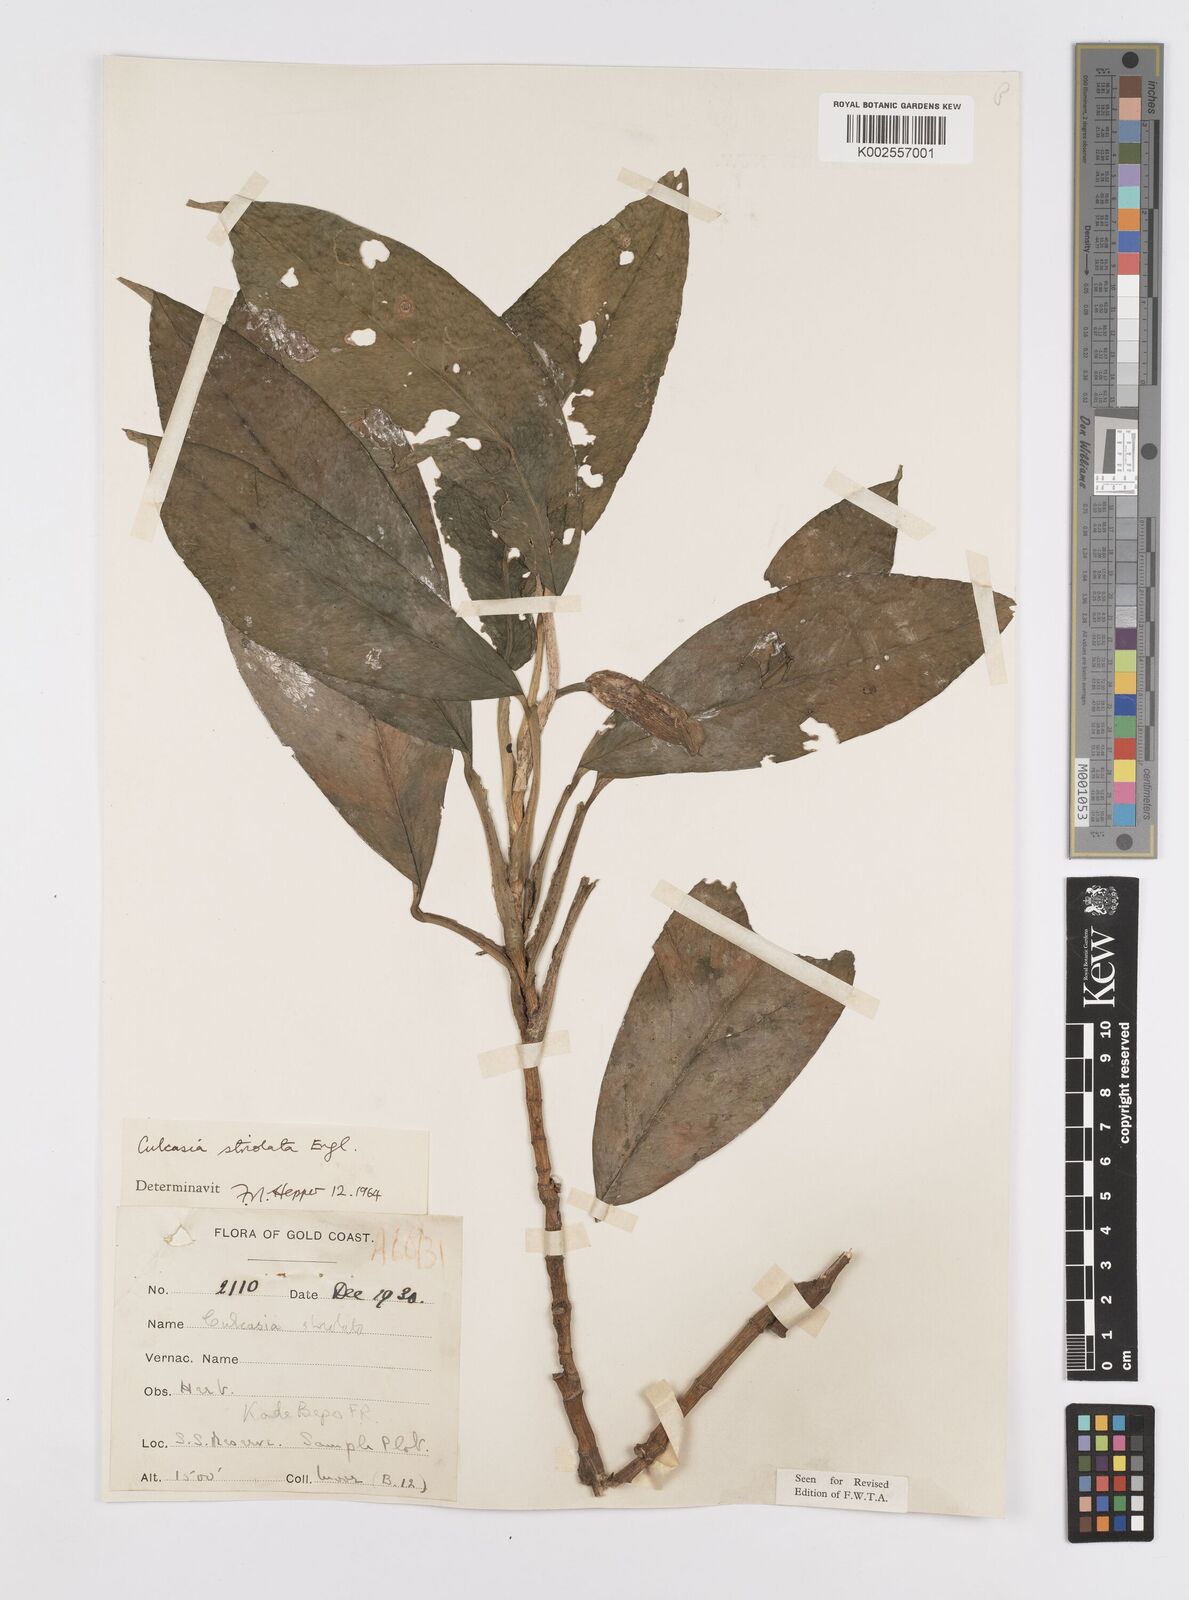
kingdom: Plantae
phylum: Tracheophyta
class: Liliopsida
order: Alismatales
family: Araceae
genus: Culcasia
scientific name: Culcasia striolata
